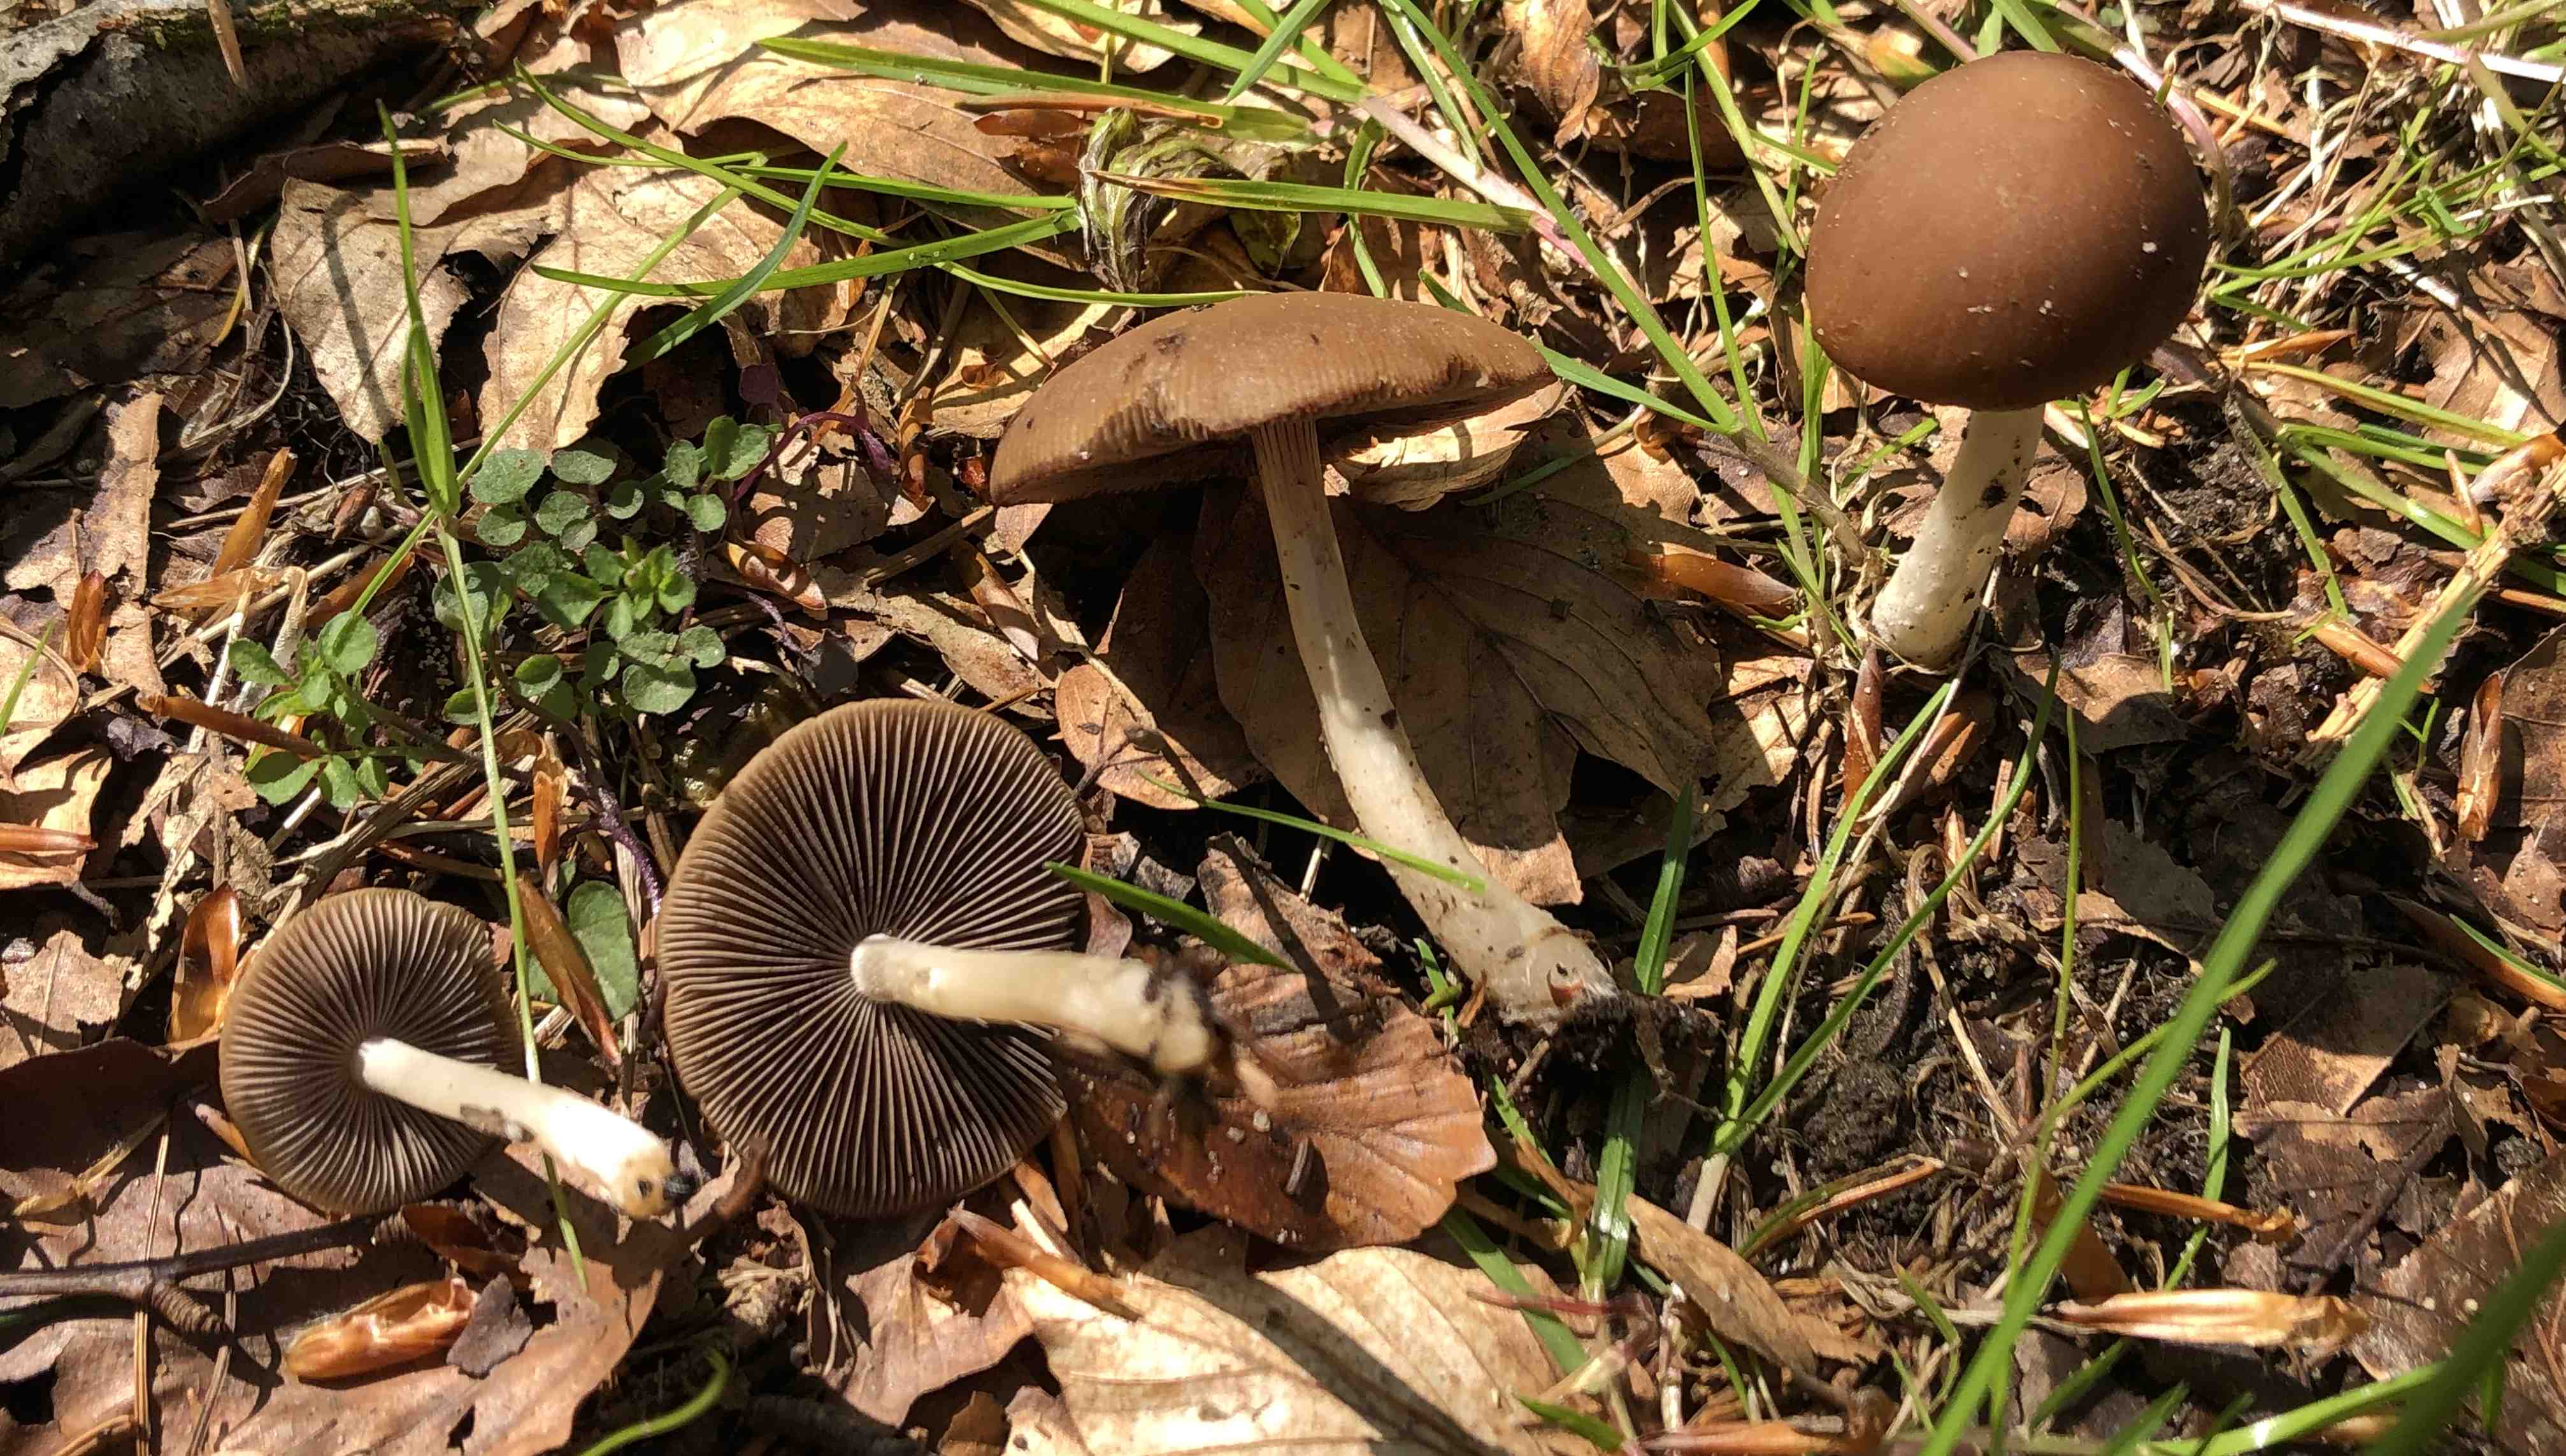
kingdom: Fungi
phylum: Basidiomycota
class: Agaricomycetes
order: Agaricales
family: Psathyrellaceae
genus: Psathyrella
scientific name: Psathyrella
